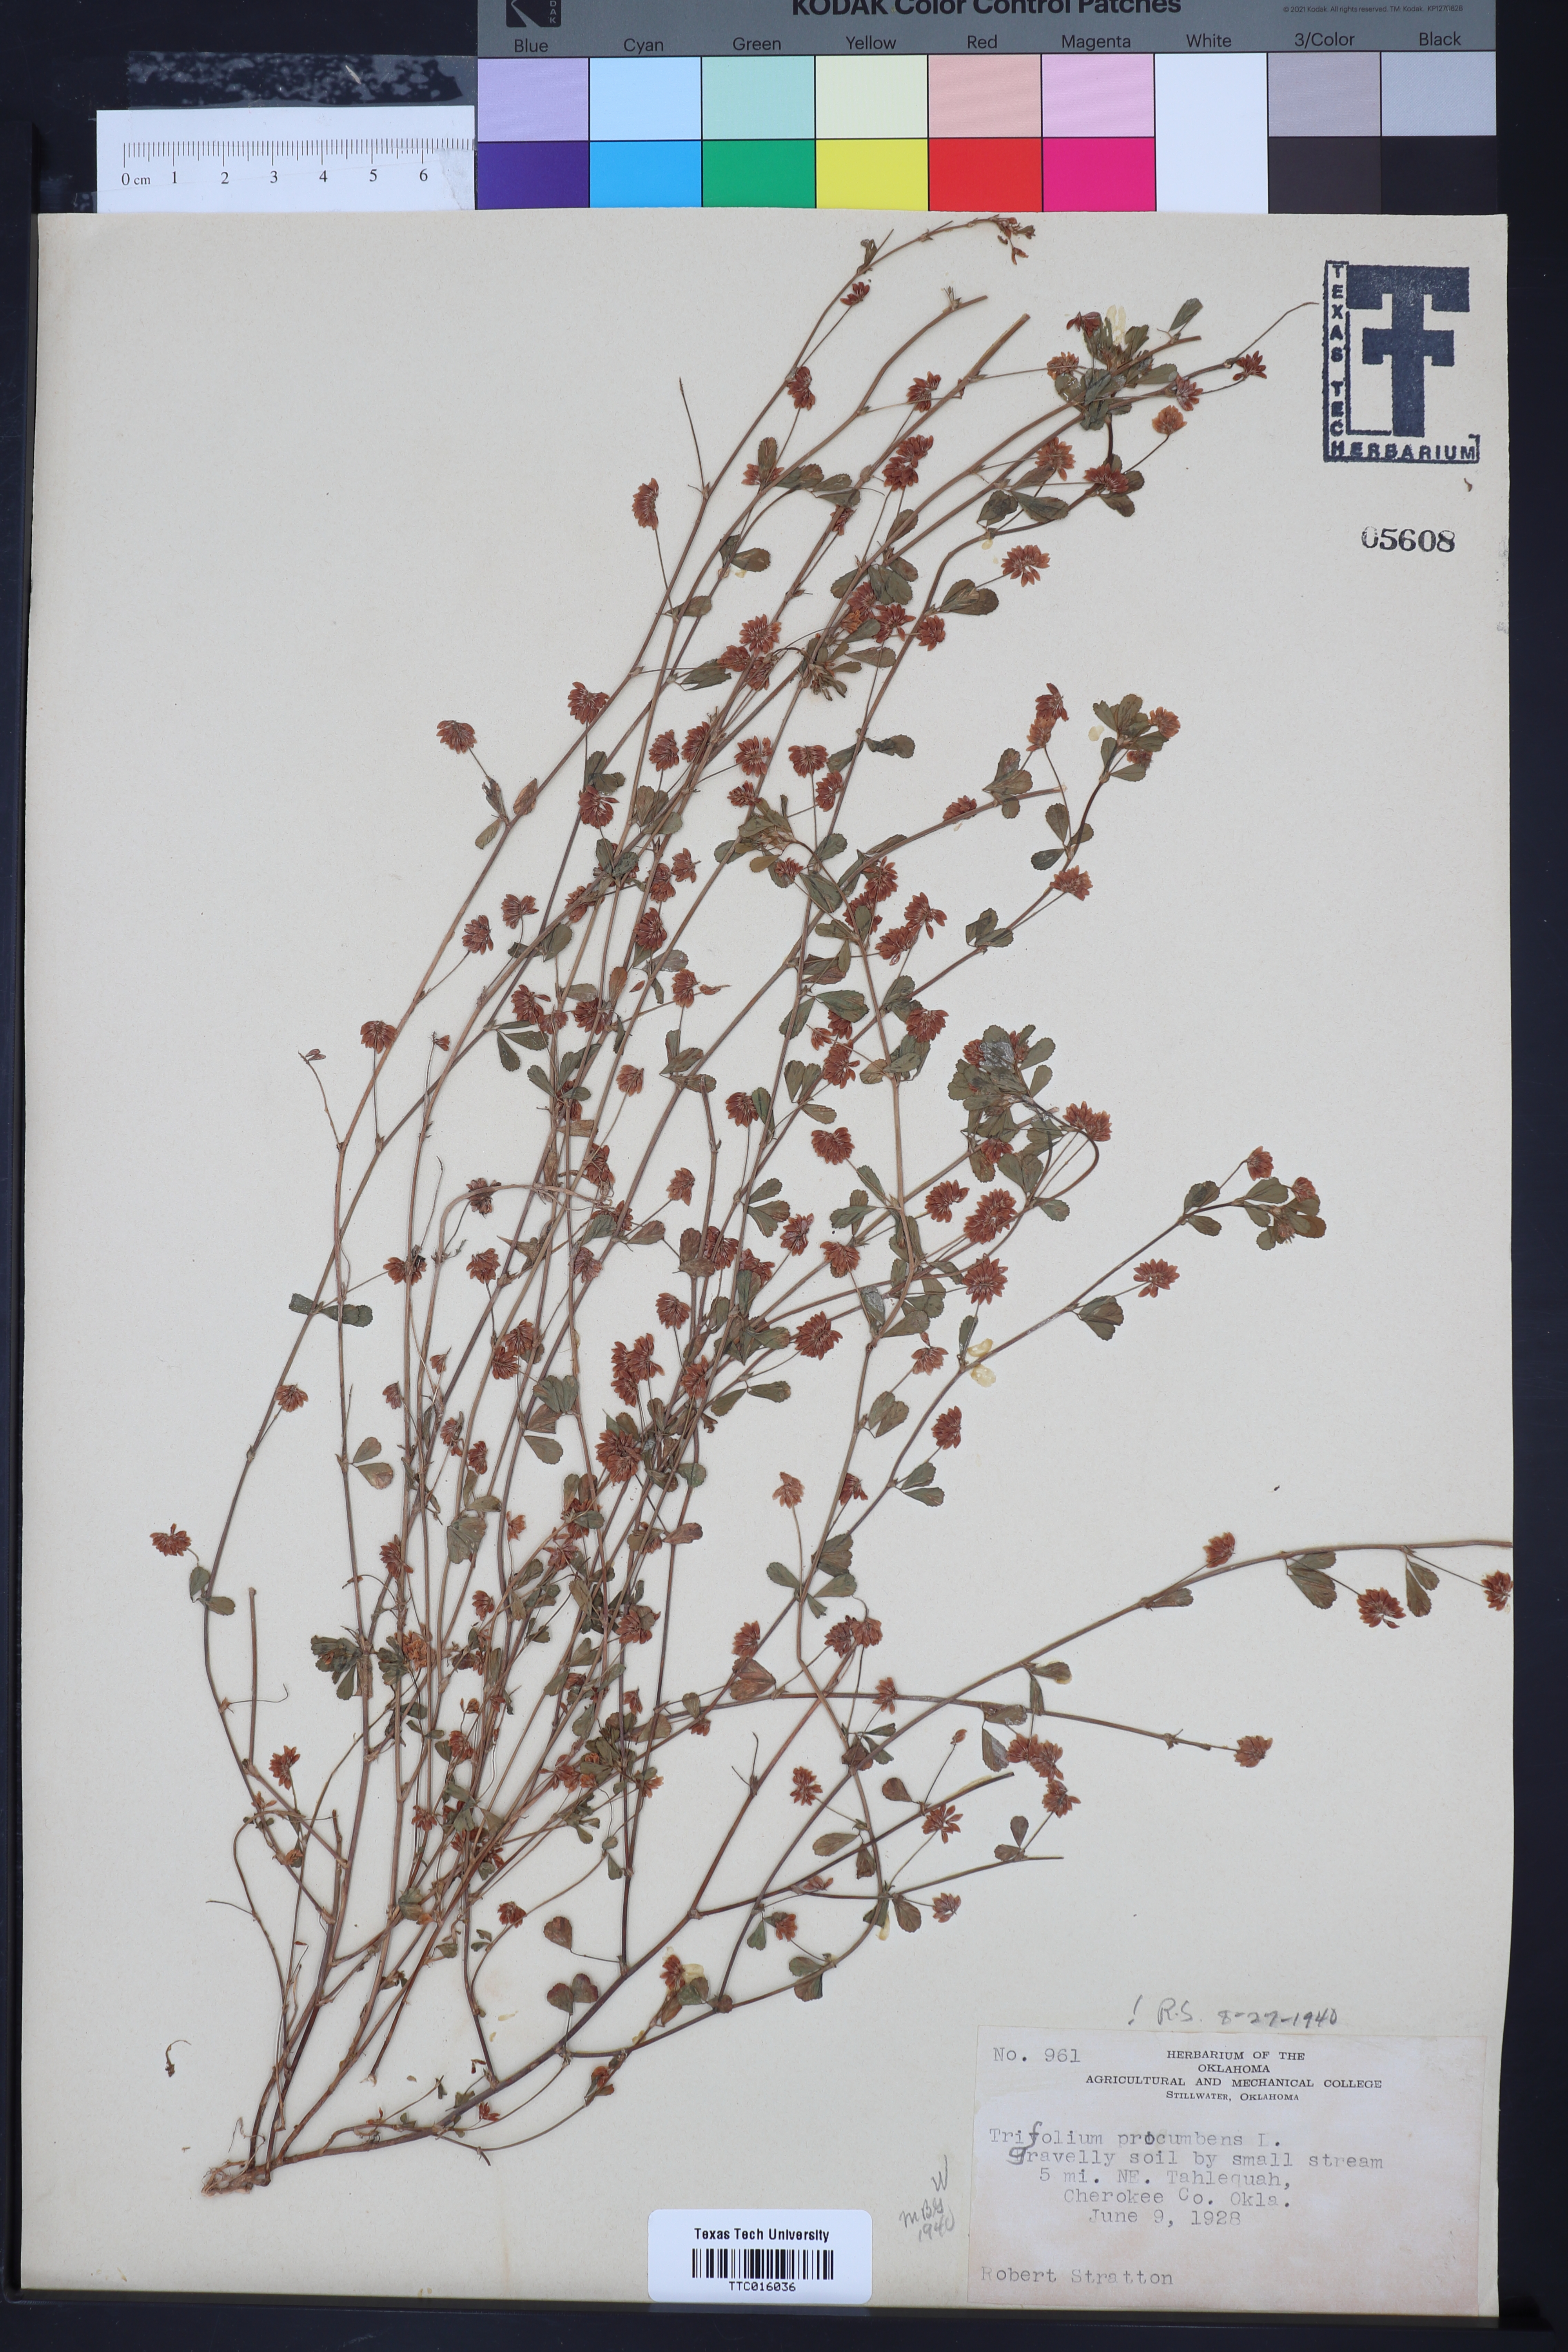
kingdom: Plantae
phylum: Tracheophyta
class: Magnoliopsida
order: Fabales
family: Fabaceae
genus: Trifolium
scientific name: Trifolium campestre
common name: Field clover
